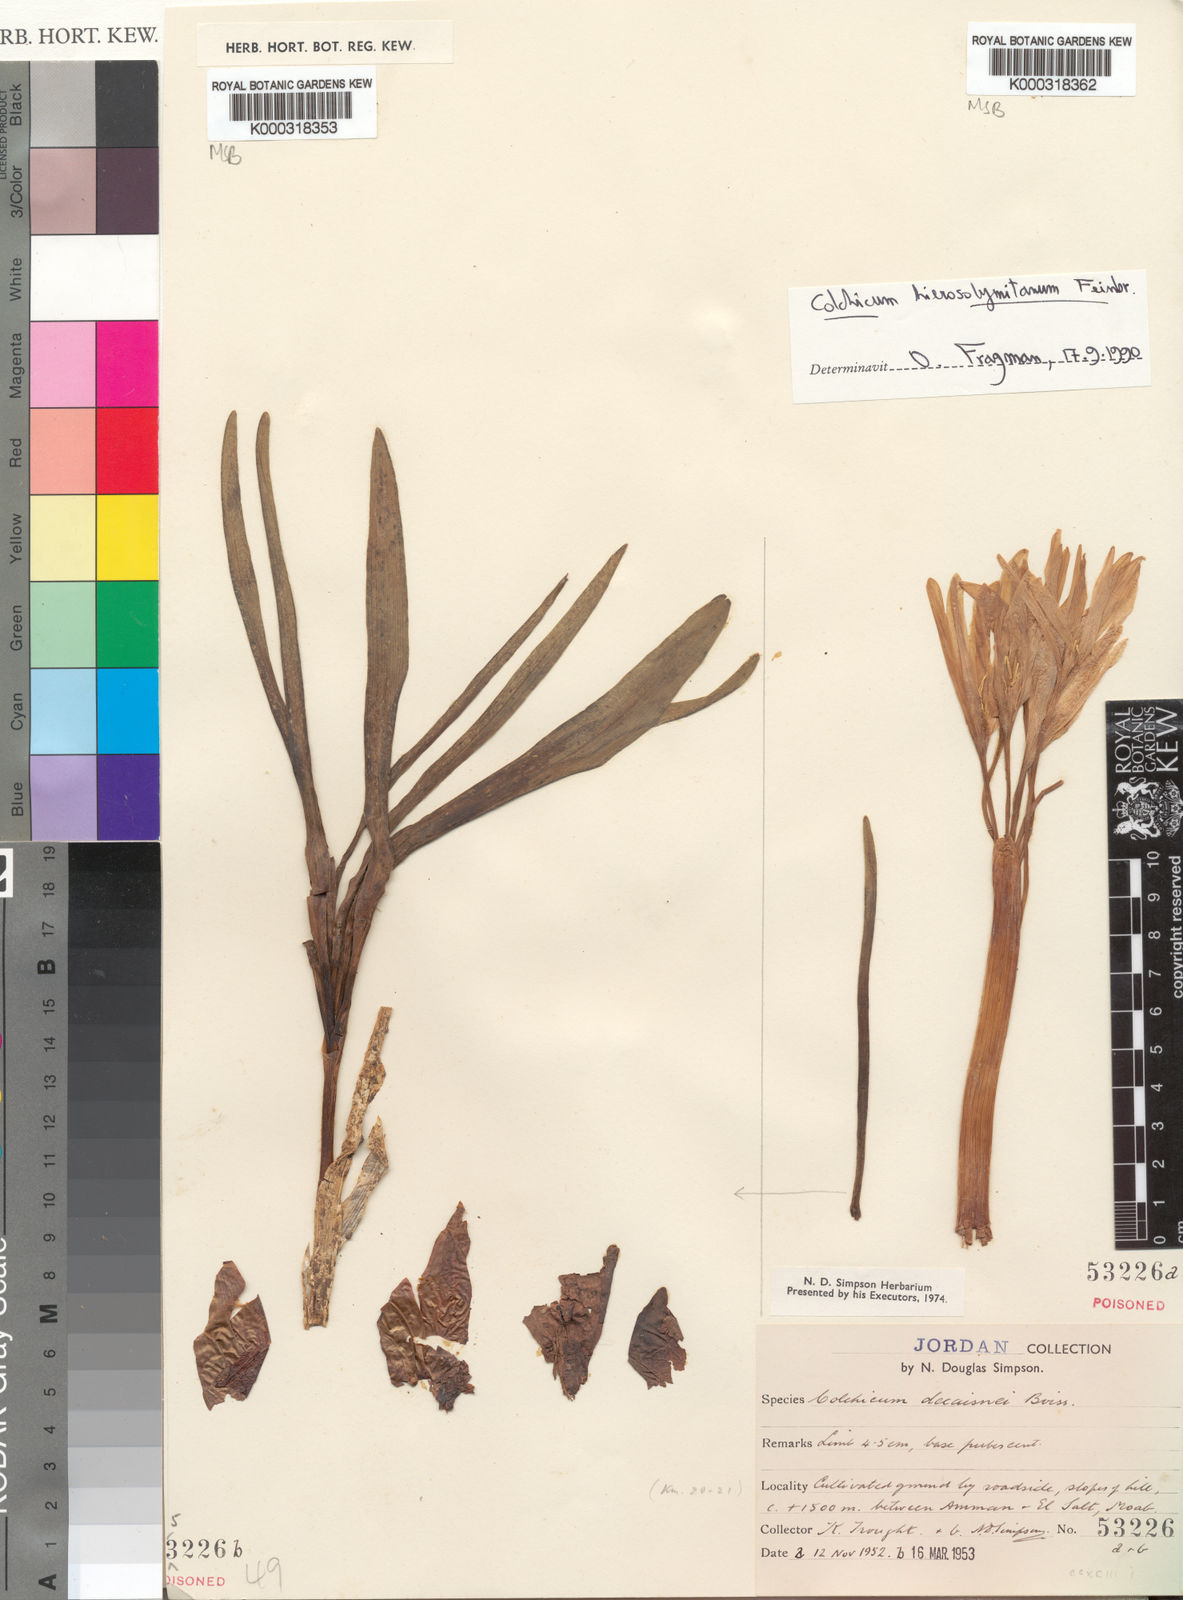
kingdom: Plantae
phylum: Tracheophyta
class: Liliopsida
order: Liliales
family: Colchicaceae
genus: Colchicum
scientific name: Colchicum hierosolymitanum
